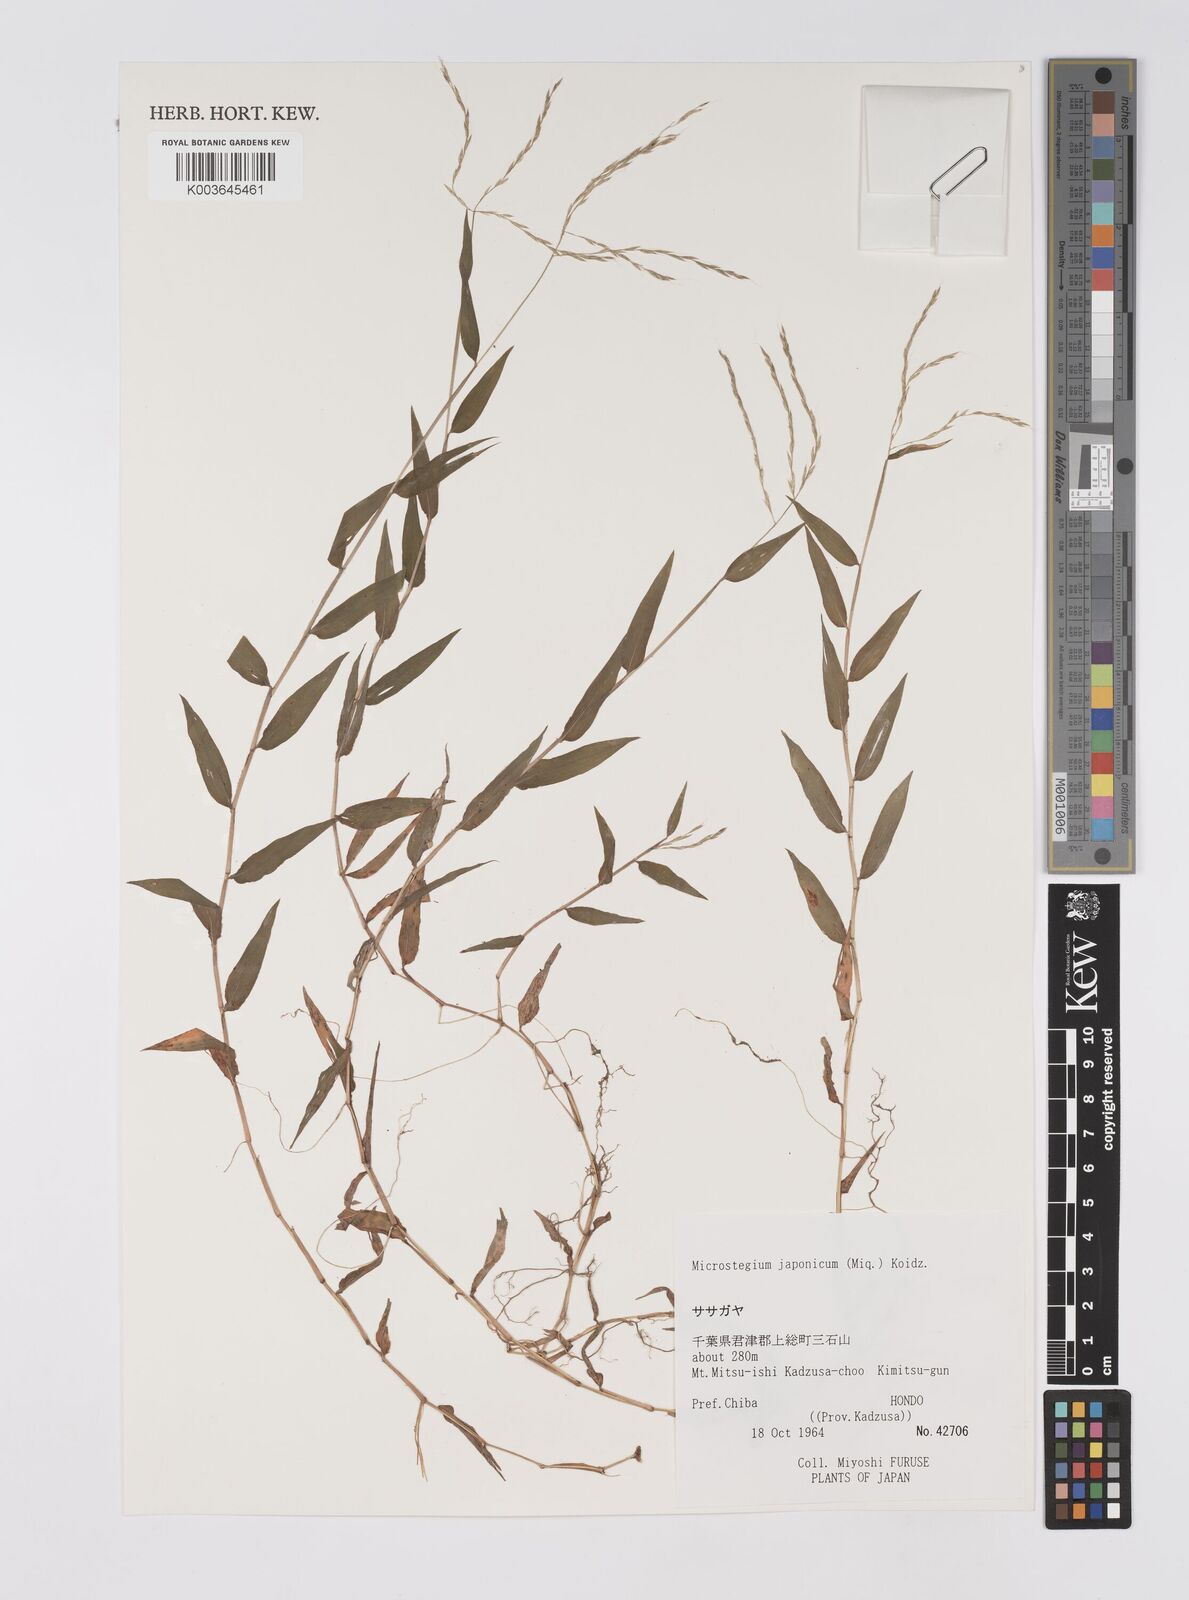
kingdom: Plantae
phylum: Tracheophyta
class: Liliopsida
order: Poales
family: Poaceae
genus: Microstegium
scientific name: Microstegium japonicum
